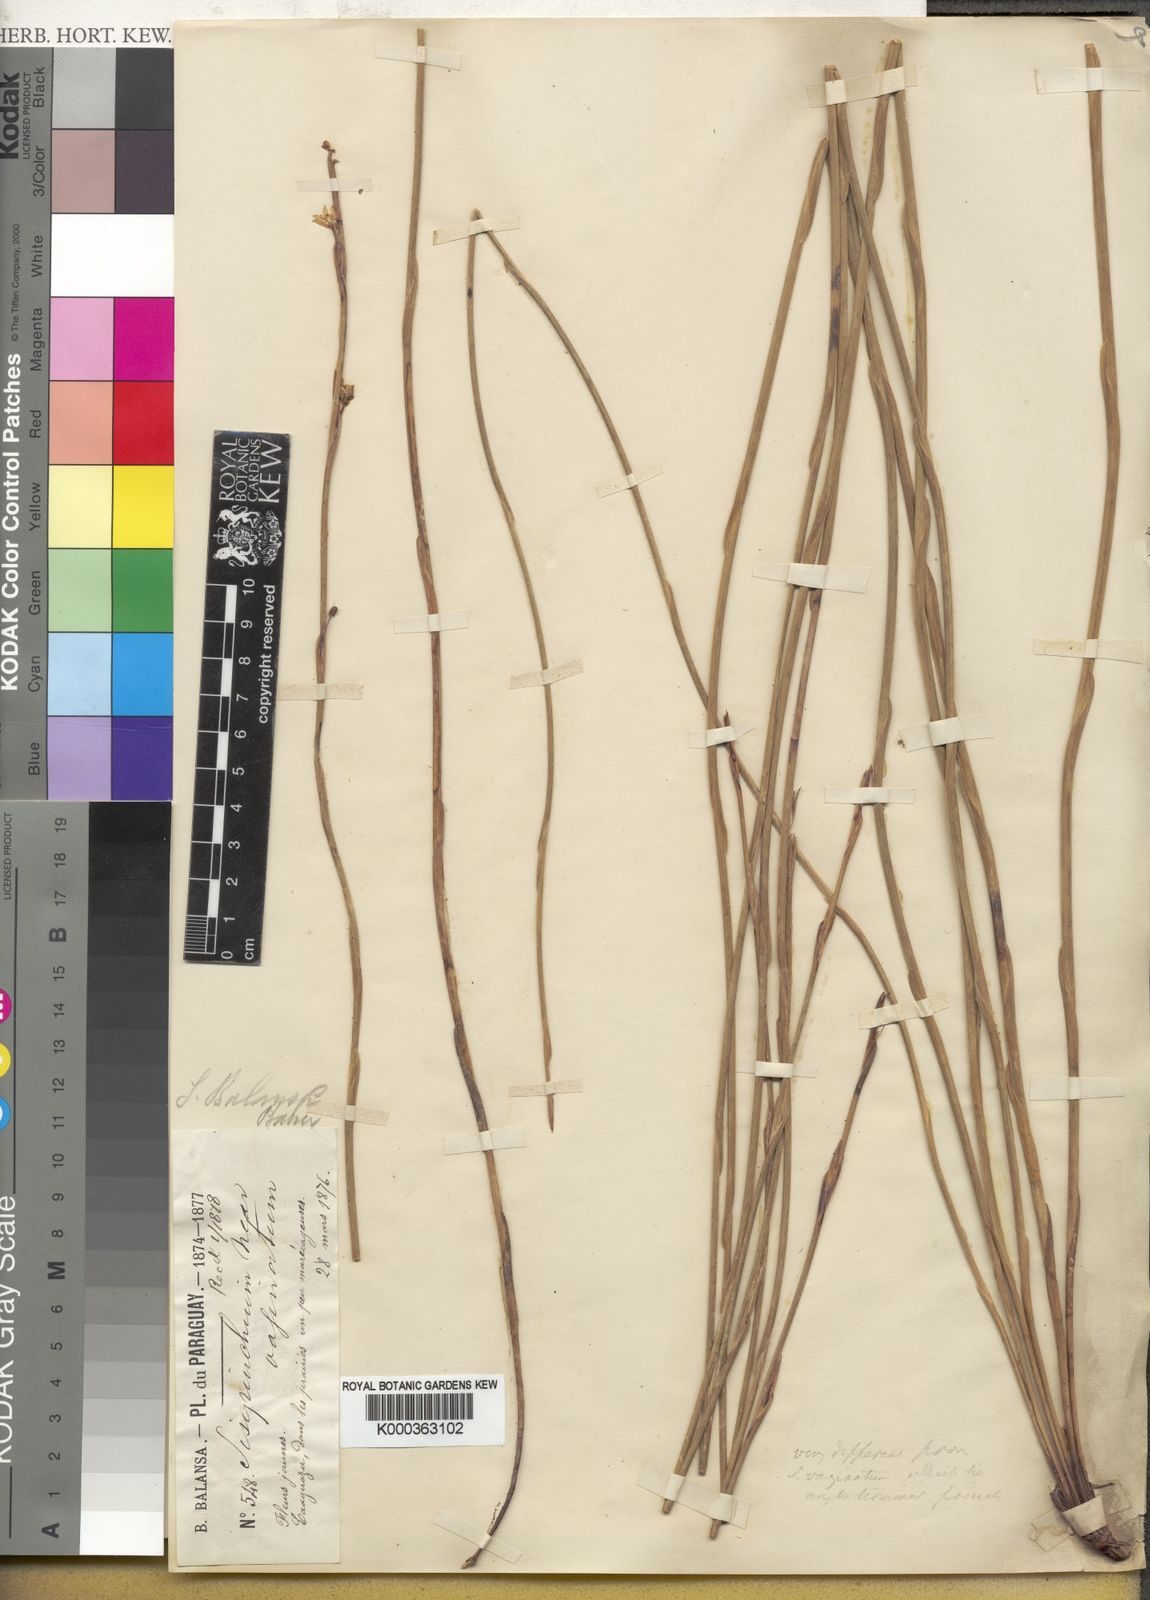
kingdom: Plantae
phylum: Tracheophyta
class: Liliopsida
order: Asparagales
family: Iridaceae
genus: Sisyrinchium
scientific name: Sisyrinchium balansae
